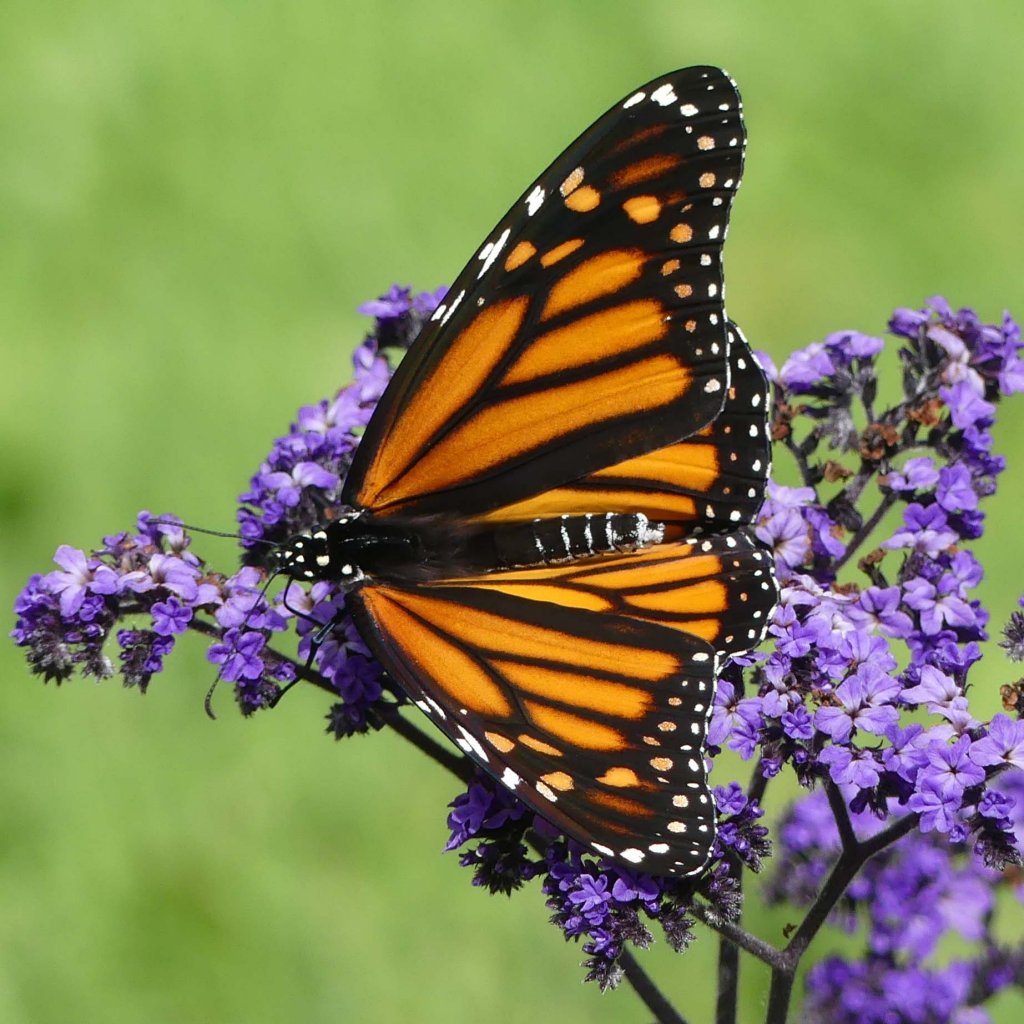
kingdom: Animalia
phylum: Arthropoda
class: Insecta
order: Lepidoptera
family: Nymphalidae
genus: Danaus
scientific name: Danaus plexippus
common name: Monarch
